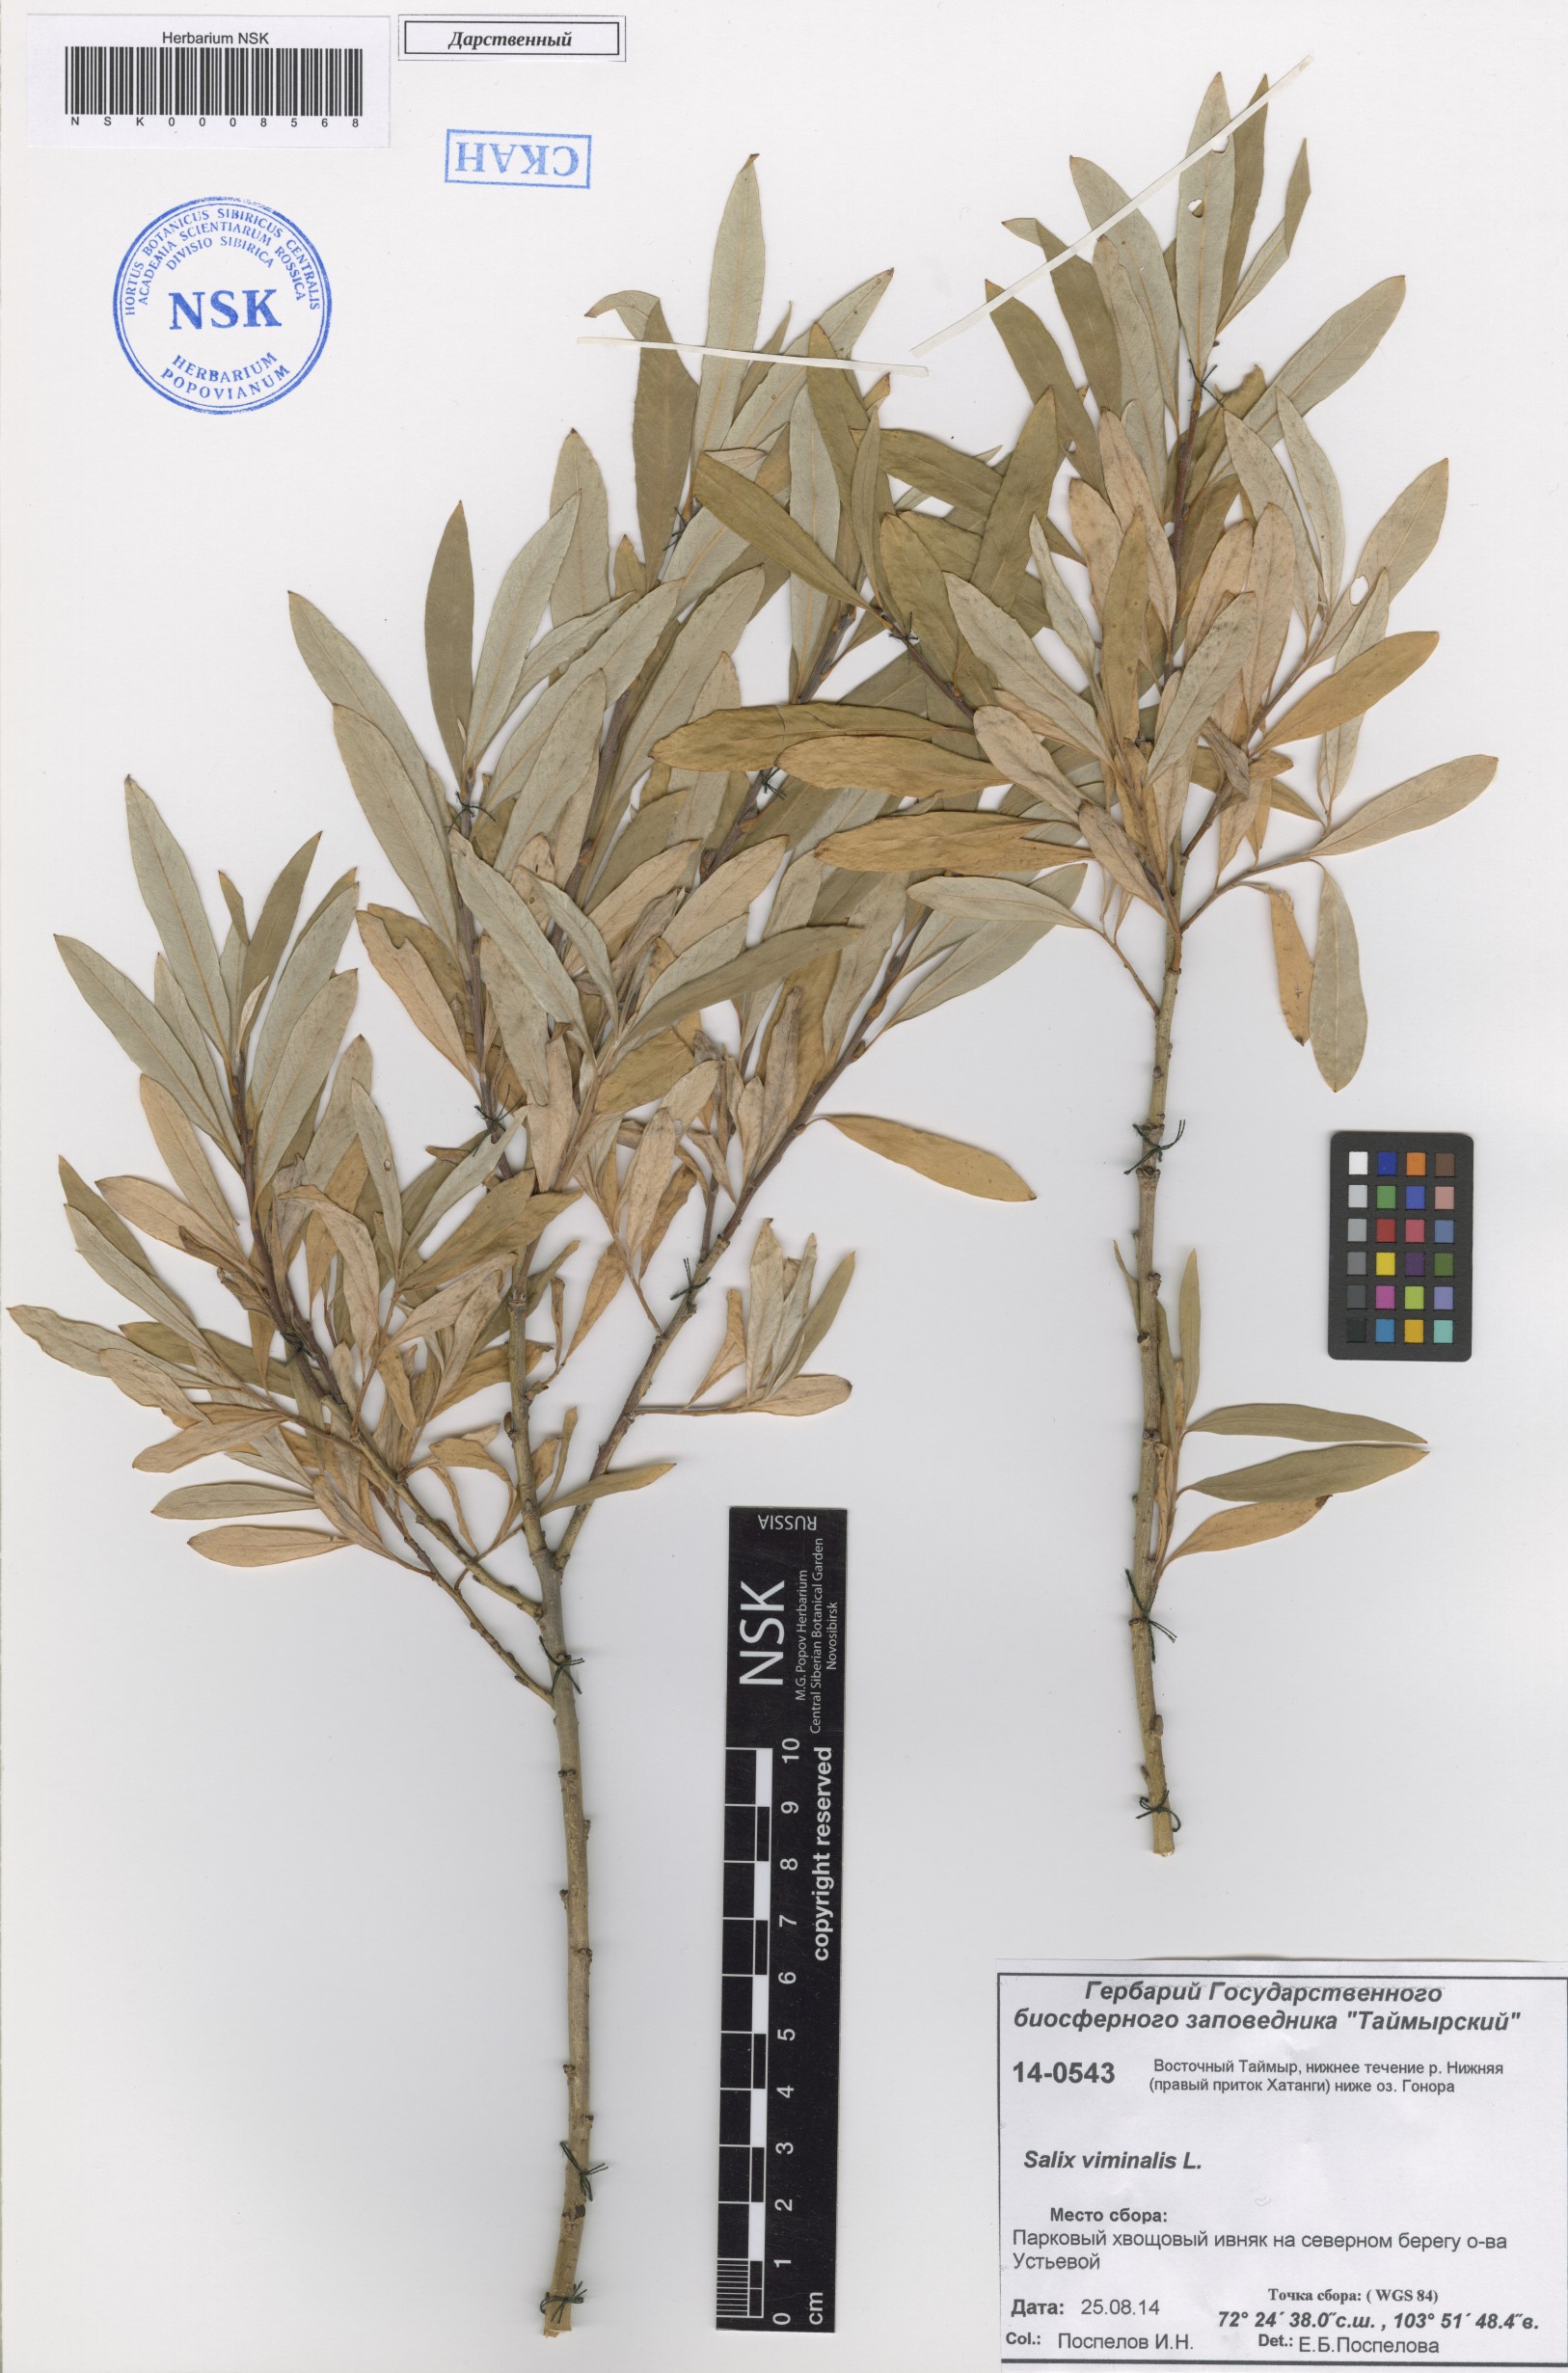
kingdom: Plantae
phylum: Tracheophyta
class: Magnoliopsida
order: Malpighiales
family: Salicaceae
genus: Salix
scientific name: Salix viminalis
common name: Osier
